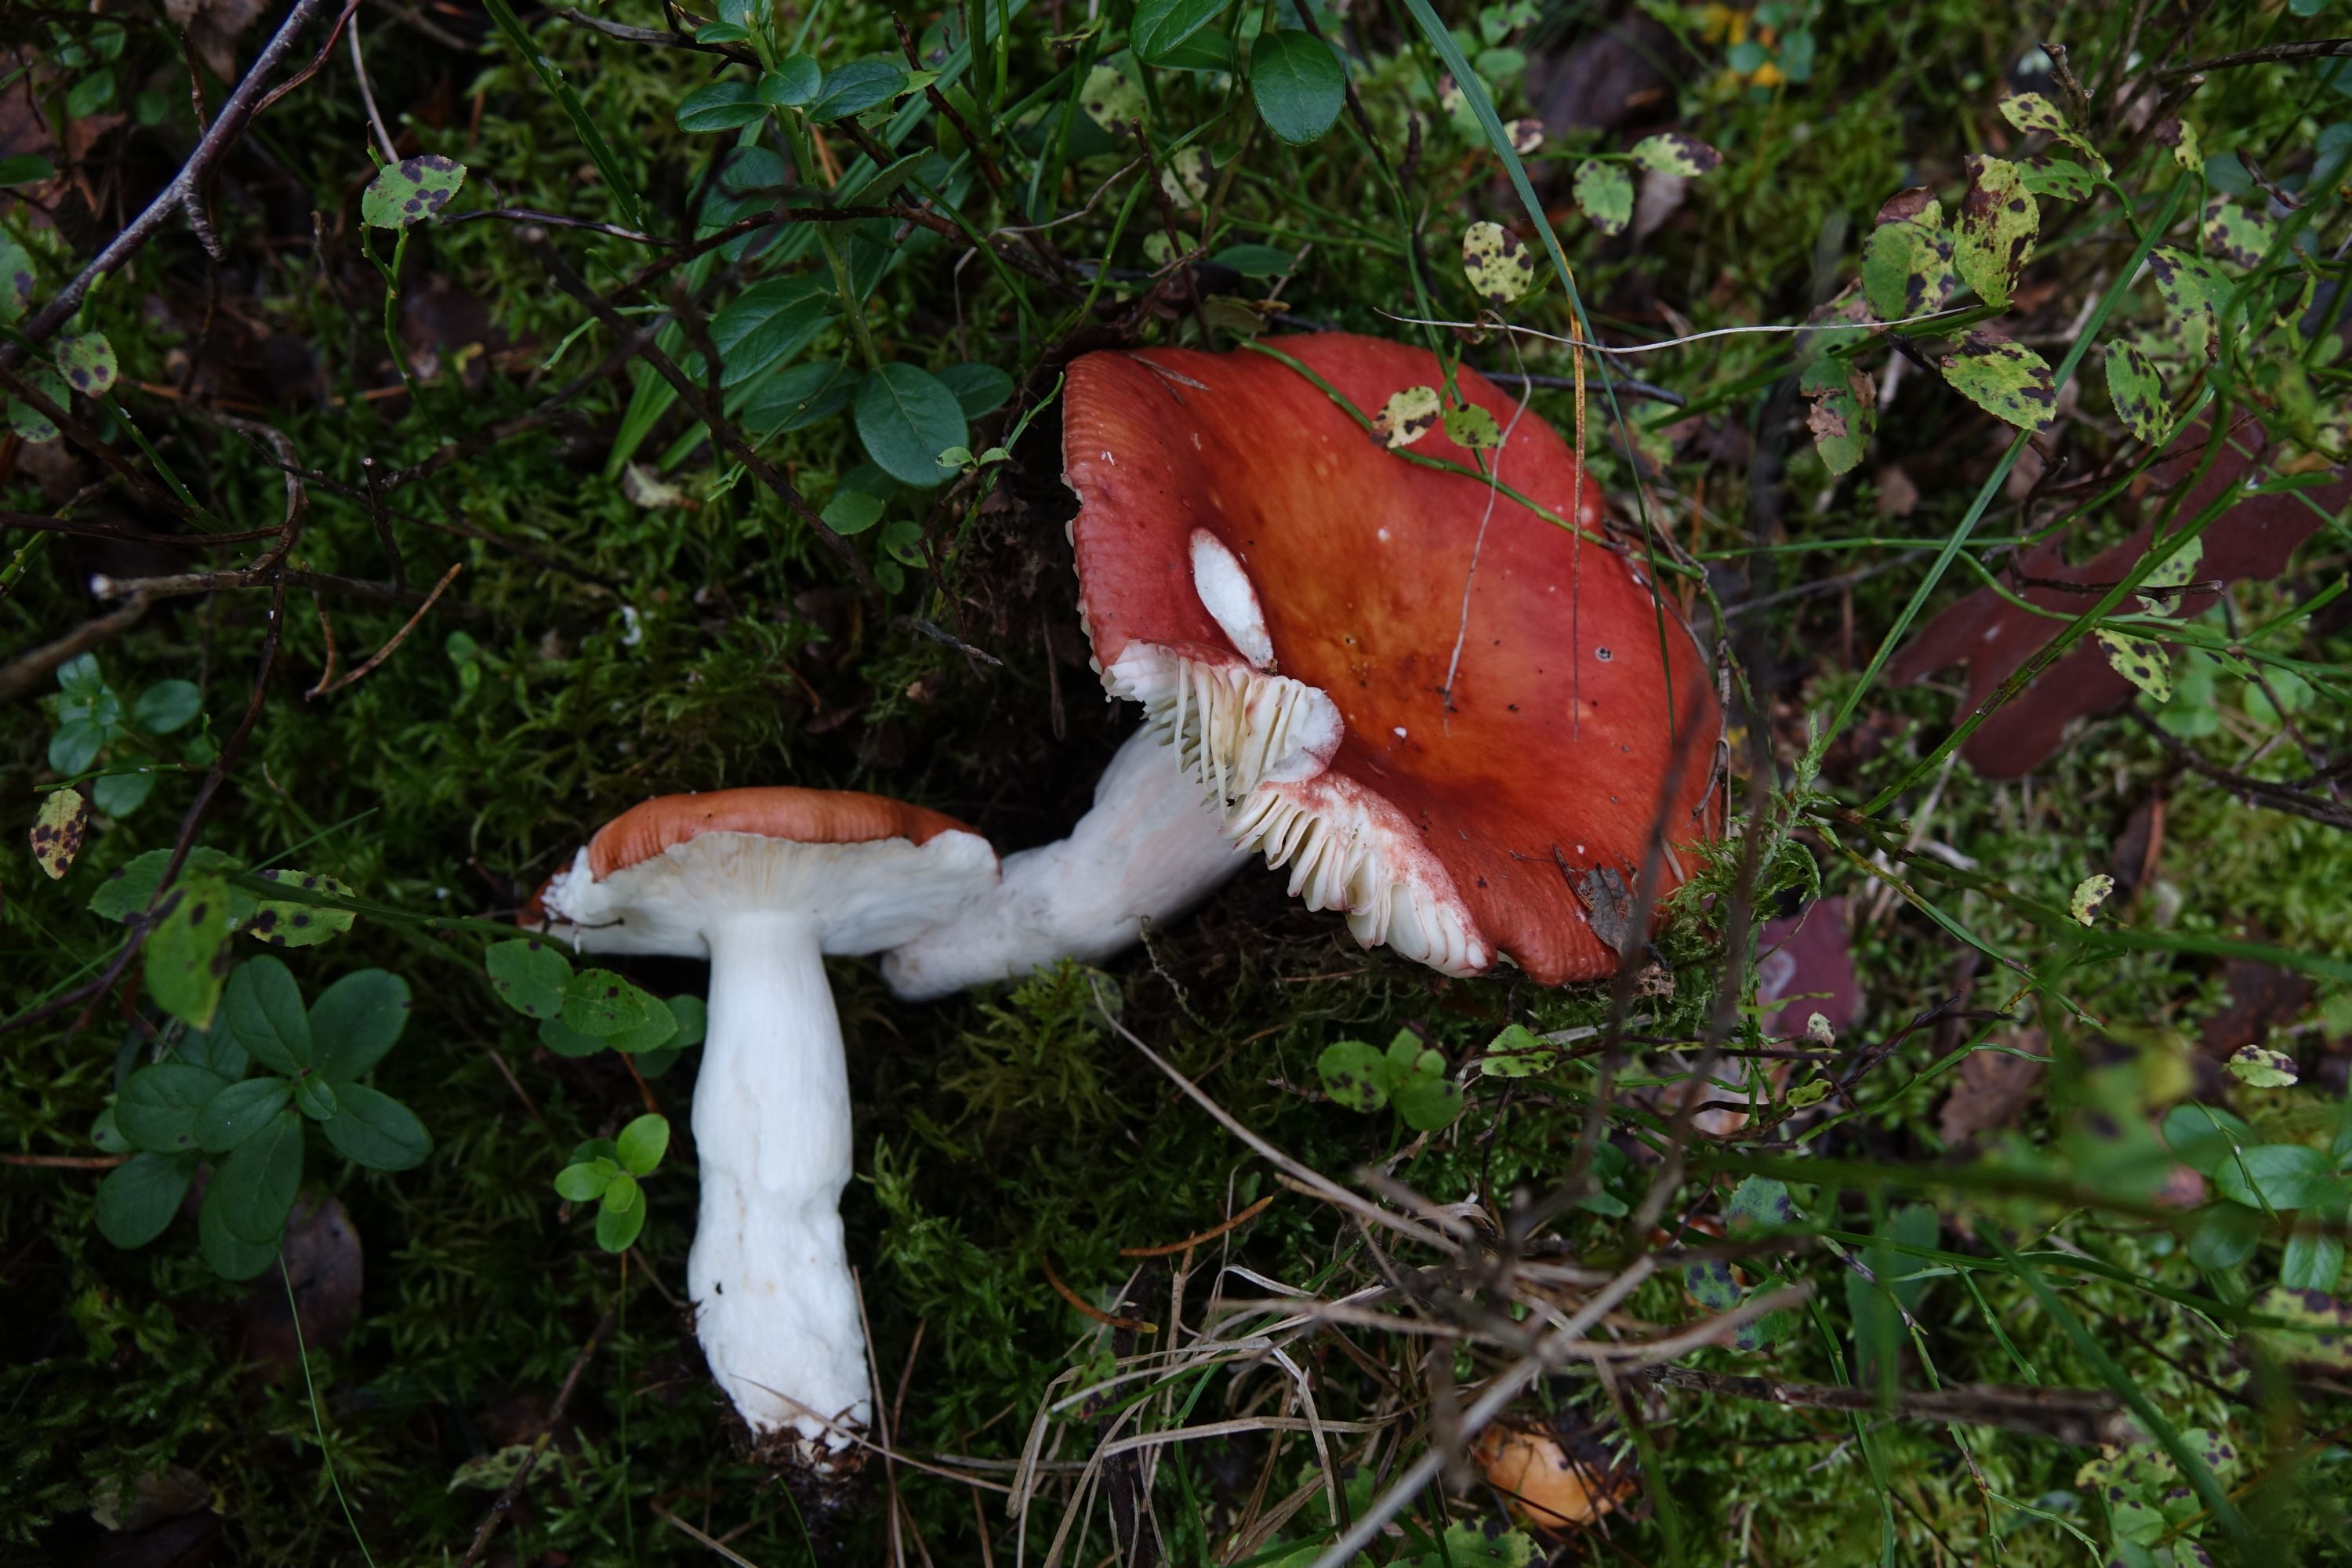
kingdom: Fungi
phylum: Basidiomycota
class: Agaricomycetes
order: Russulales
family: Russulaceae
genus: Russula
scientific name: Russula intermedia
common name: Intermediate brittlegill
